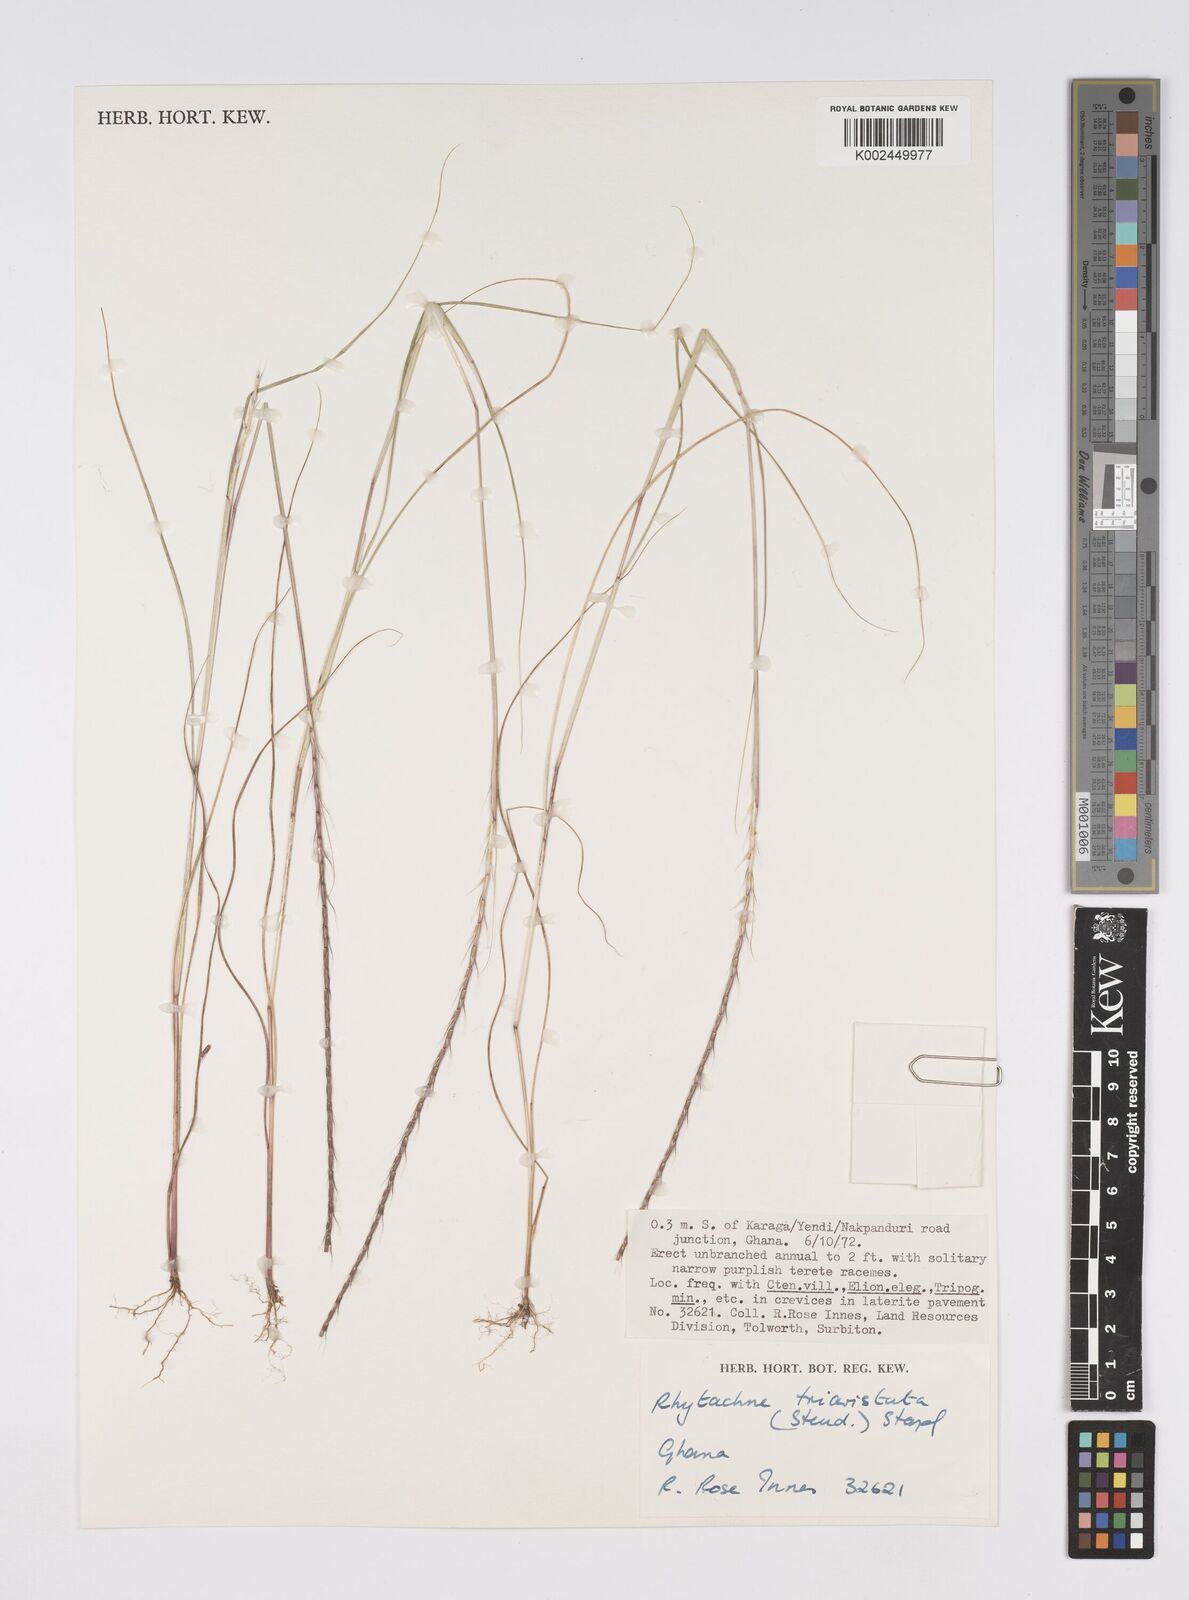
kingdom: Plantae
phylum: Tracheophyta
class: Liliopsida
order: Poales
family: Poaceae
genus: Rhytachne
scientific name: Rhytachne triaristata
